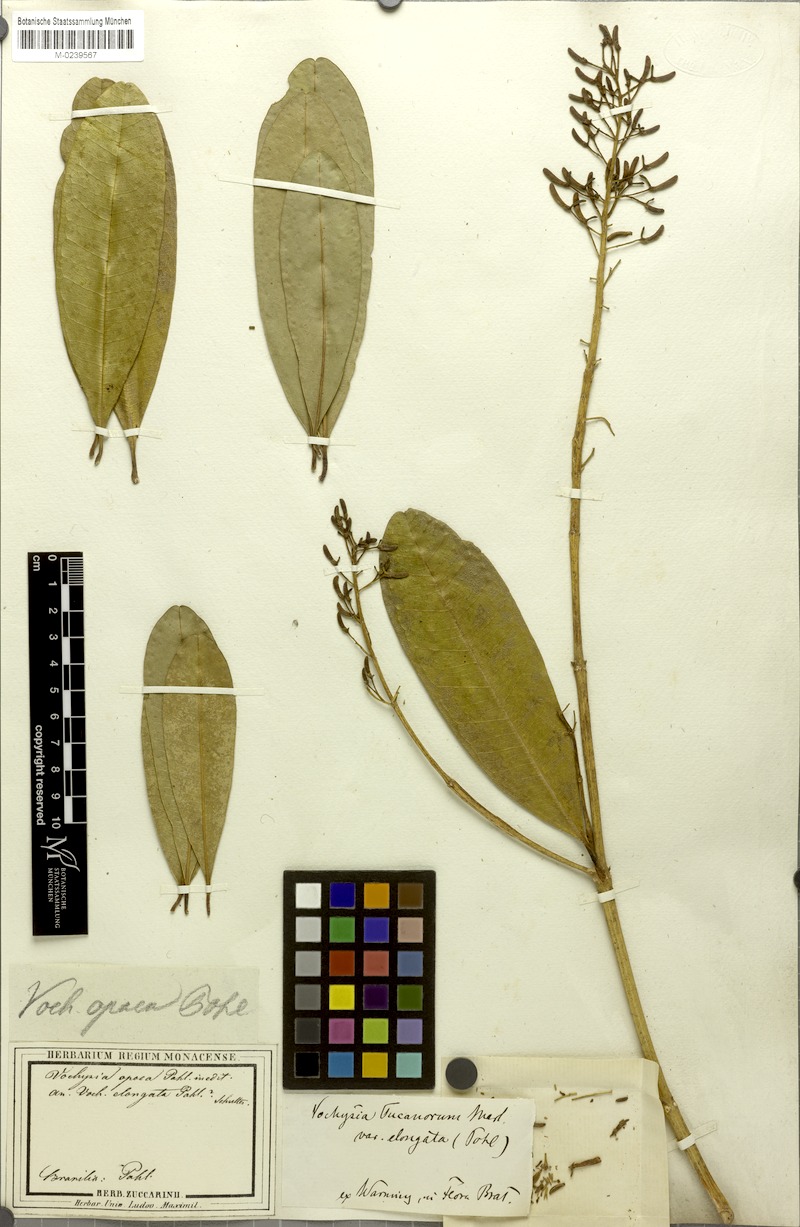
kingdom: Plantae
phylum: Tracheophyta
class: Magnoliopsida
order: Myrtales
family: Vochysiaceae
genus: Vochysia
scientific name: Vochysia tucanorum
